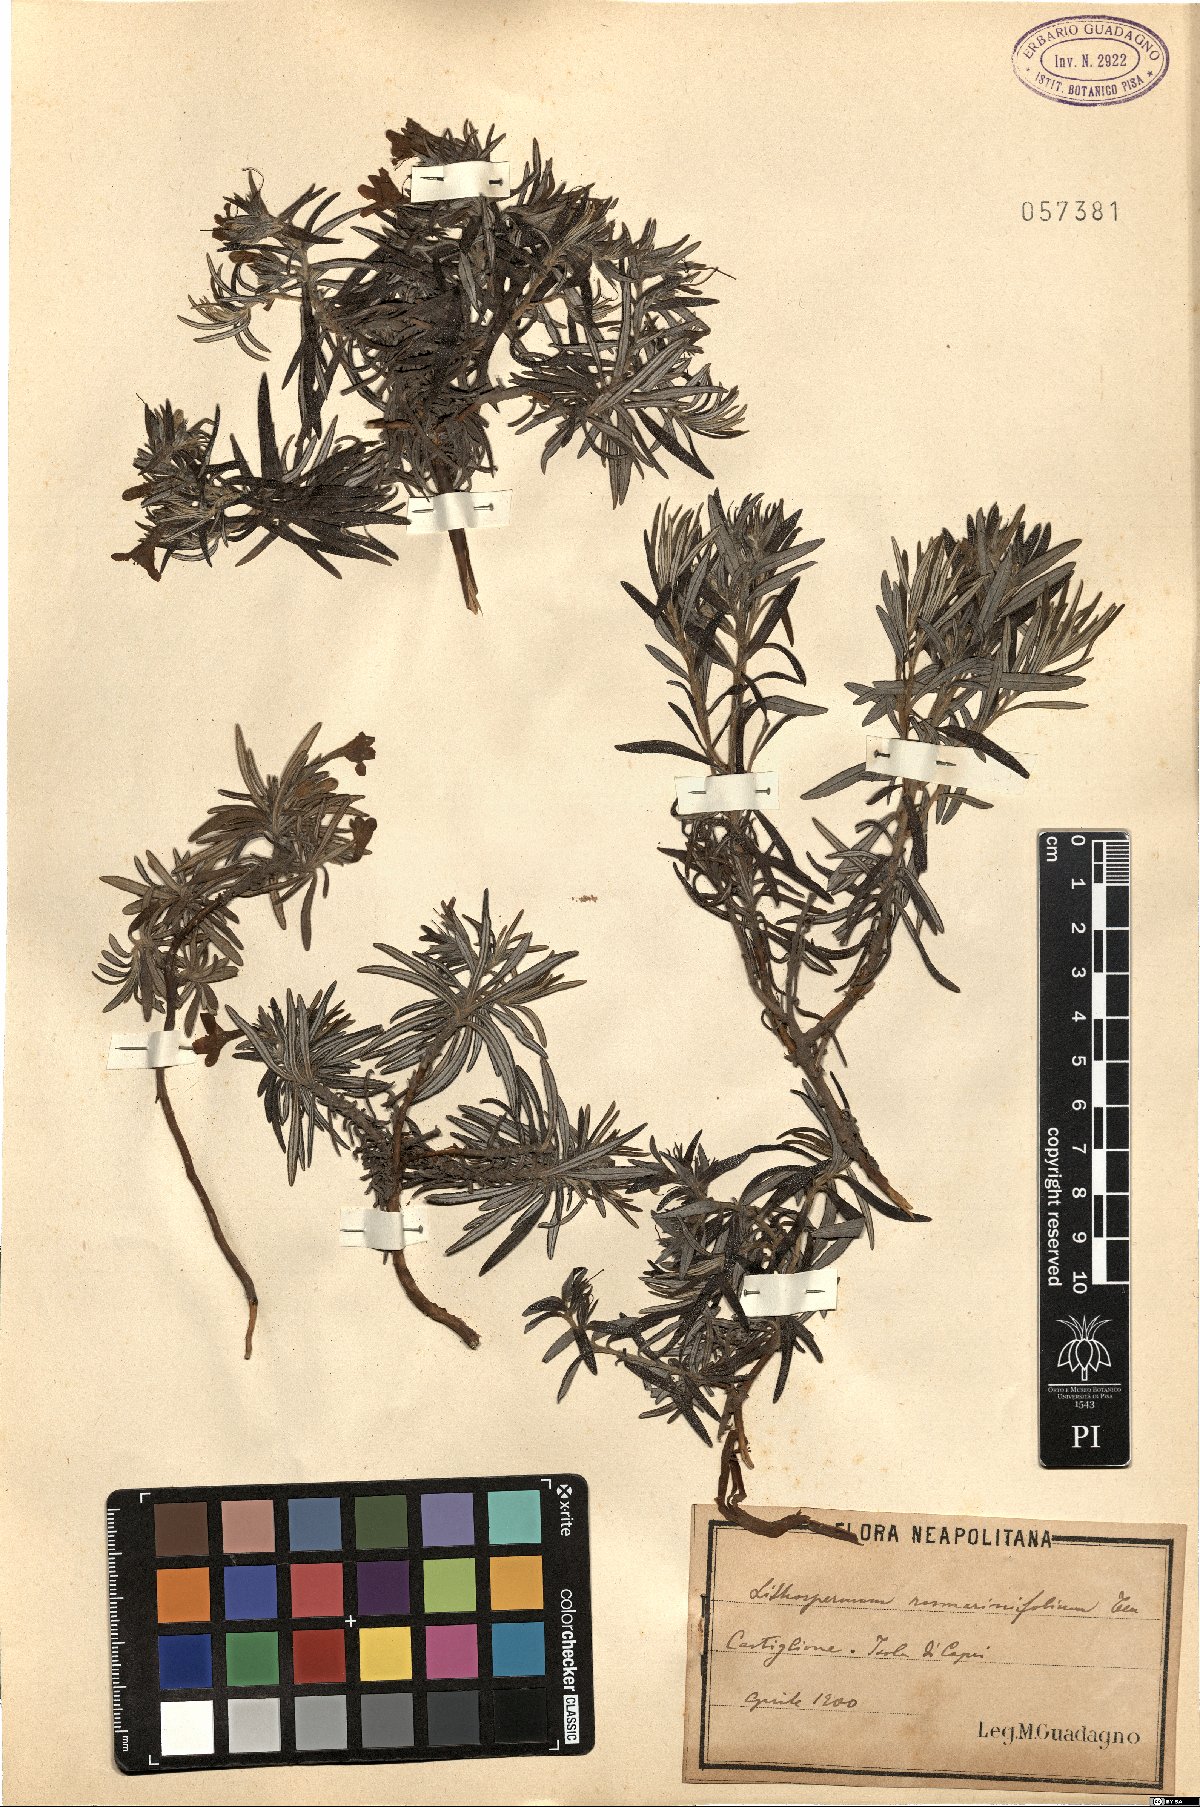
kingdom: Plantae
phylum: Tracheophyta
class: Magnoliopsida
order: Boraginales
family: Boraginaceae
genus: Glandora
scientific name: Glandora rosmarinifolia
